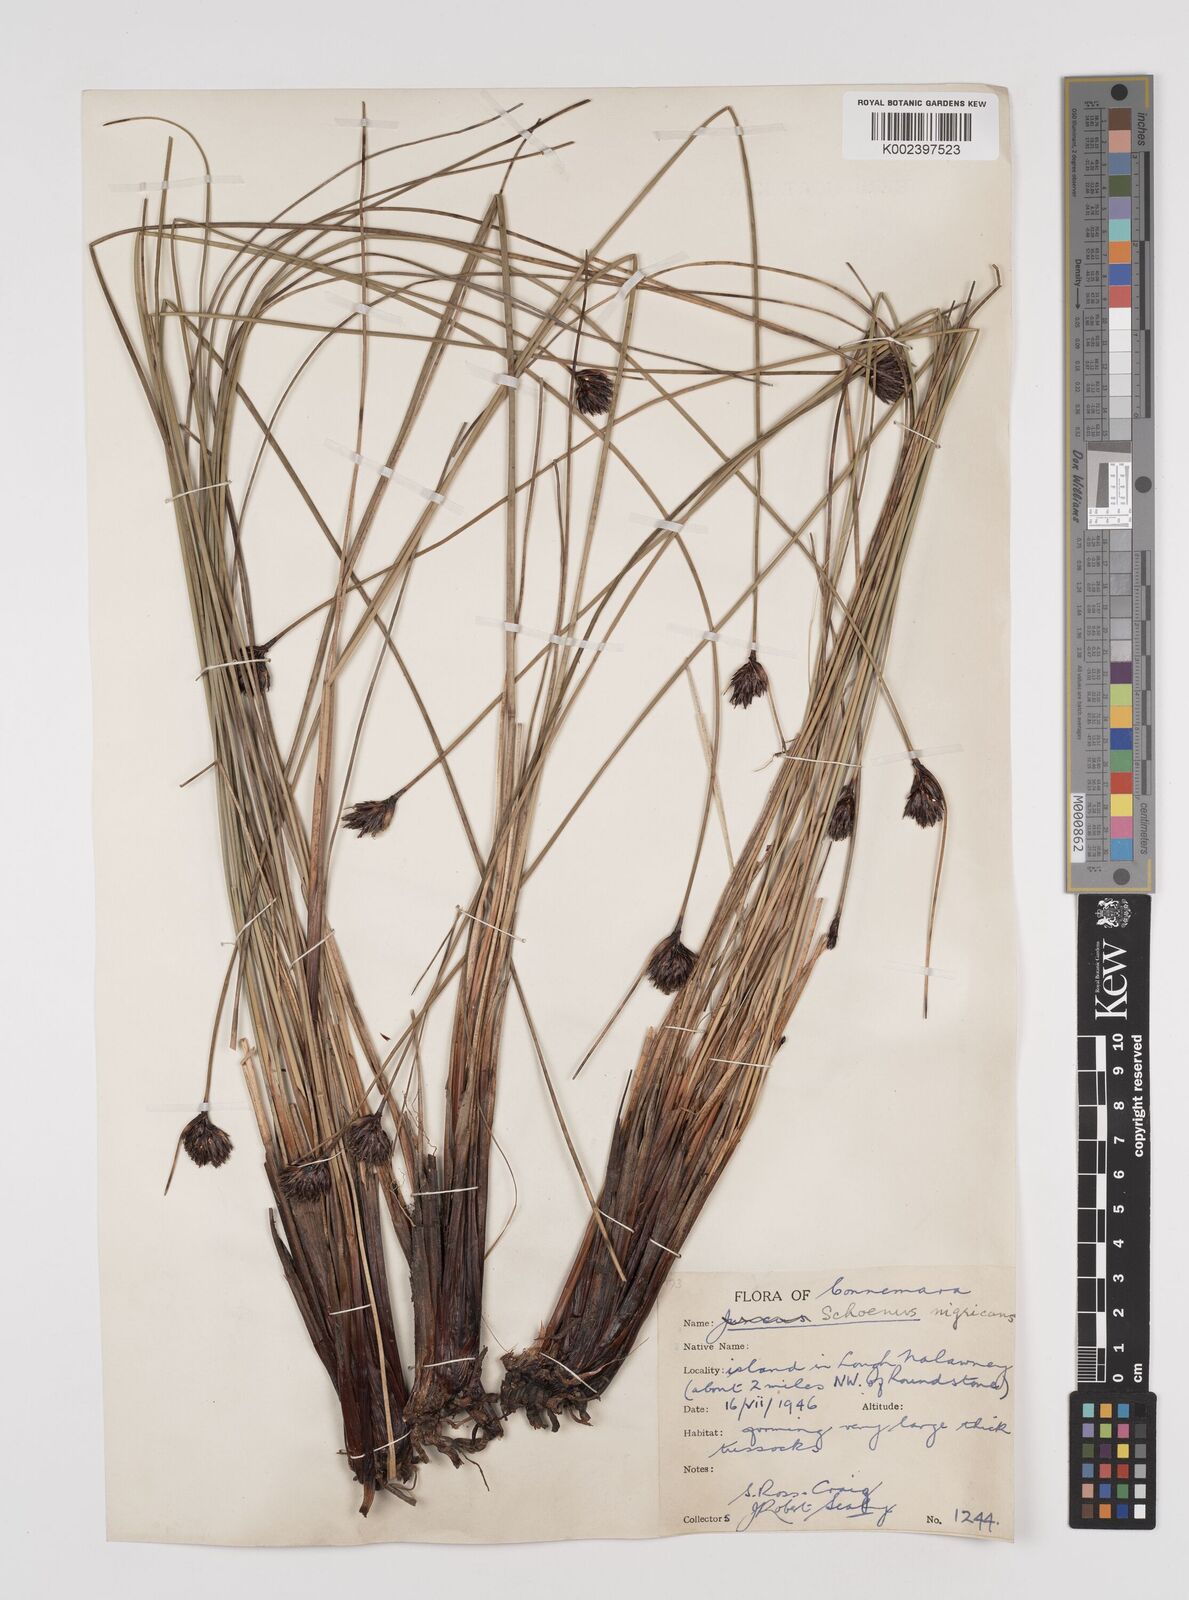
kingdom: Plantae
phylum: Tracheophyta
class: Liliopsida
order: Poales
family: Cyperaceae
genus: Schoenus
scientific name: Schoenus nigricans
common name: Black bog-rush
